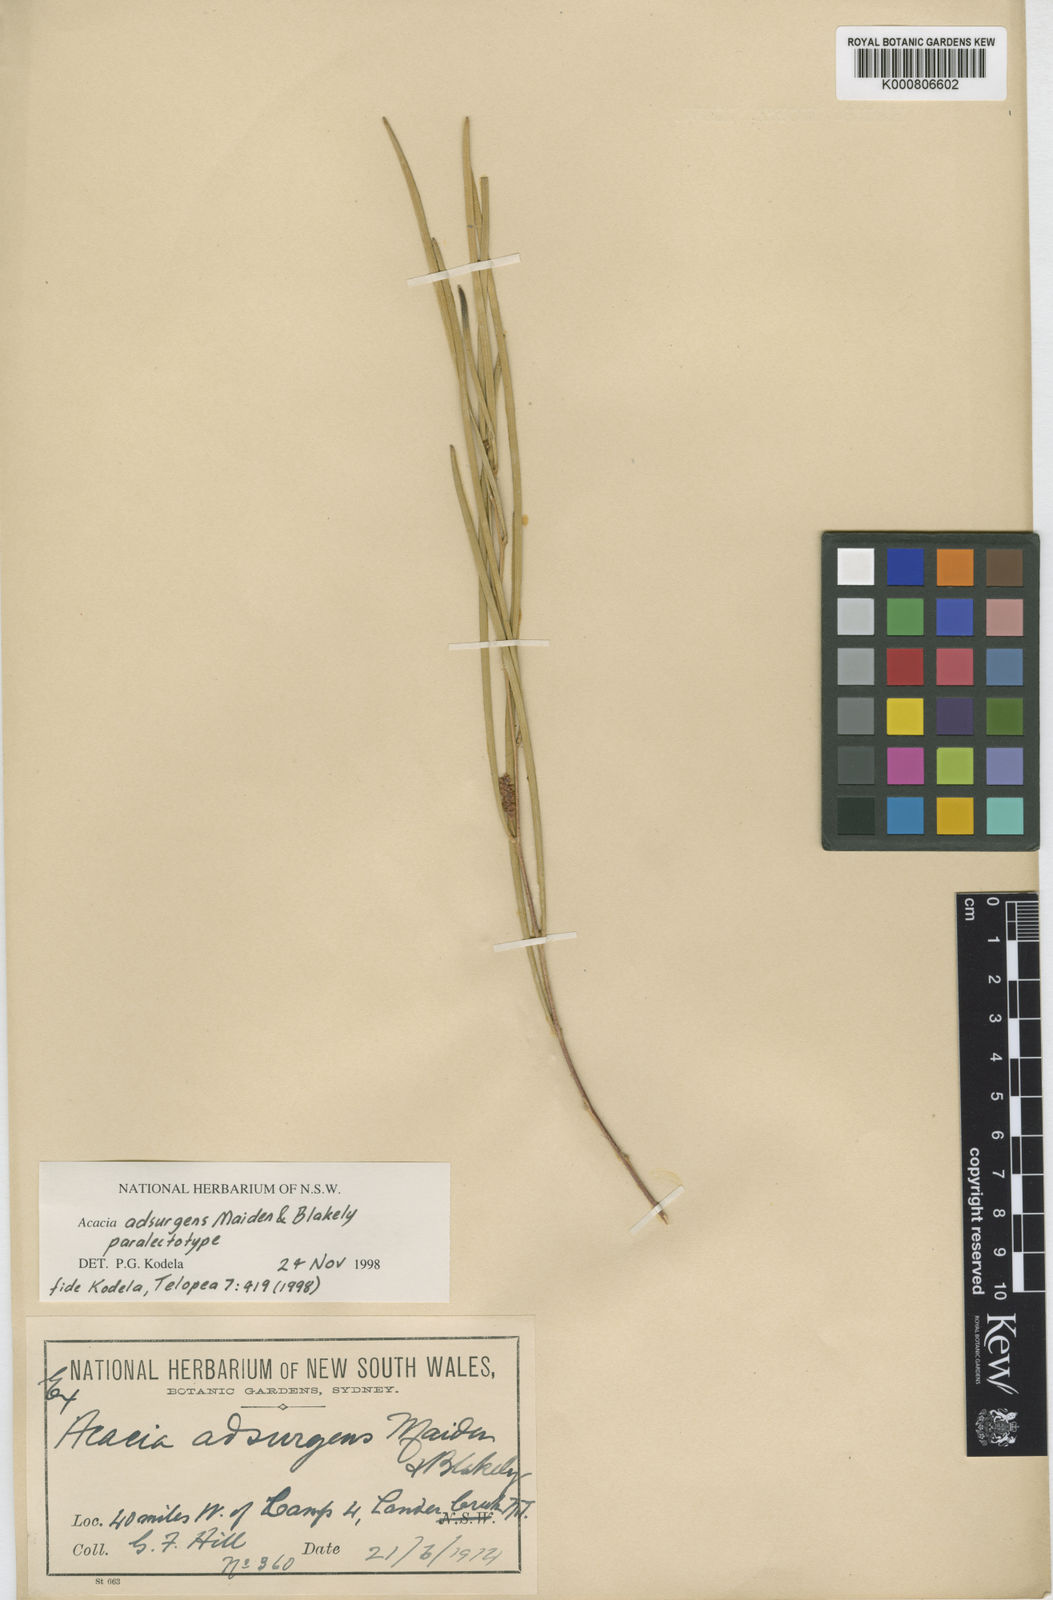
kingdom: Plantae
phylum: Tracheophyta
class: Magnoliopsida
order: Fabales
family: Fabaceae
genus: Acacia
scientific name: Acacia adsurgens
